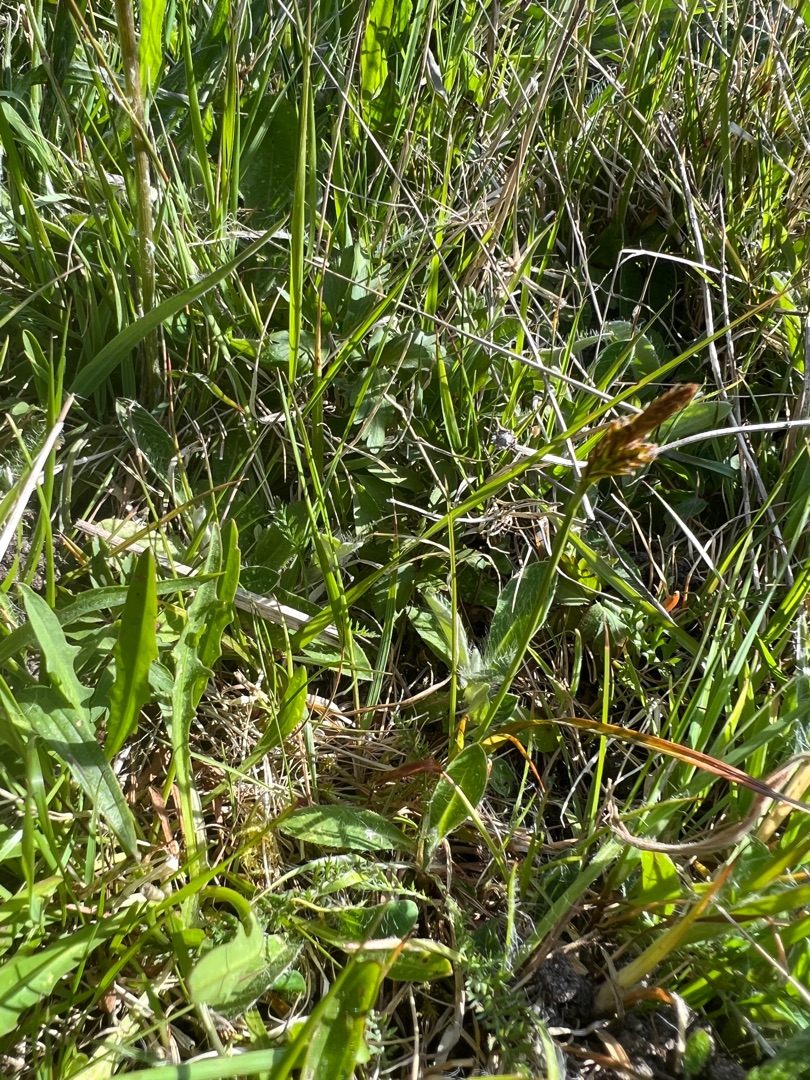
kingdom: Plantae
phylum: Tracheophyta
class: Liliopsida
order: Poales
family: Cyperaceae
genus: Carex
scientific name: Carex caryophyllea
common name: Vår-star
